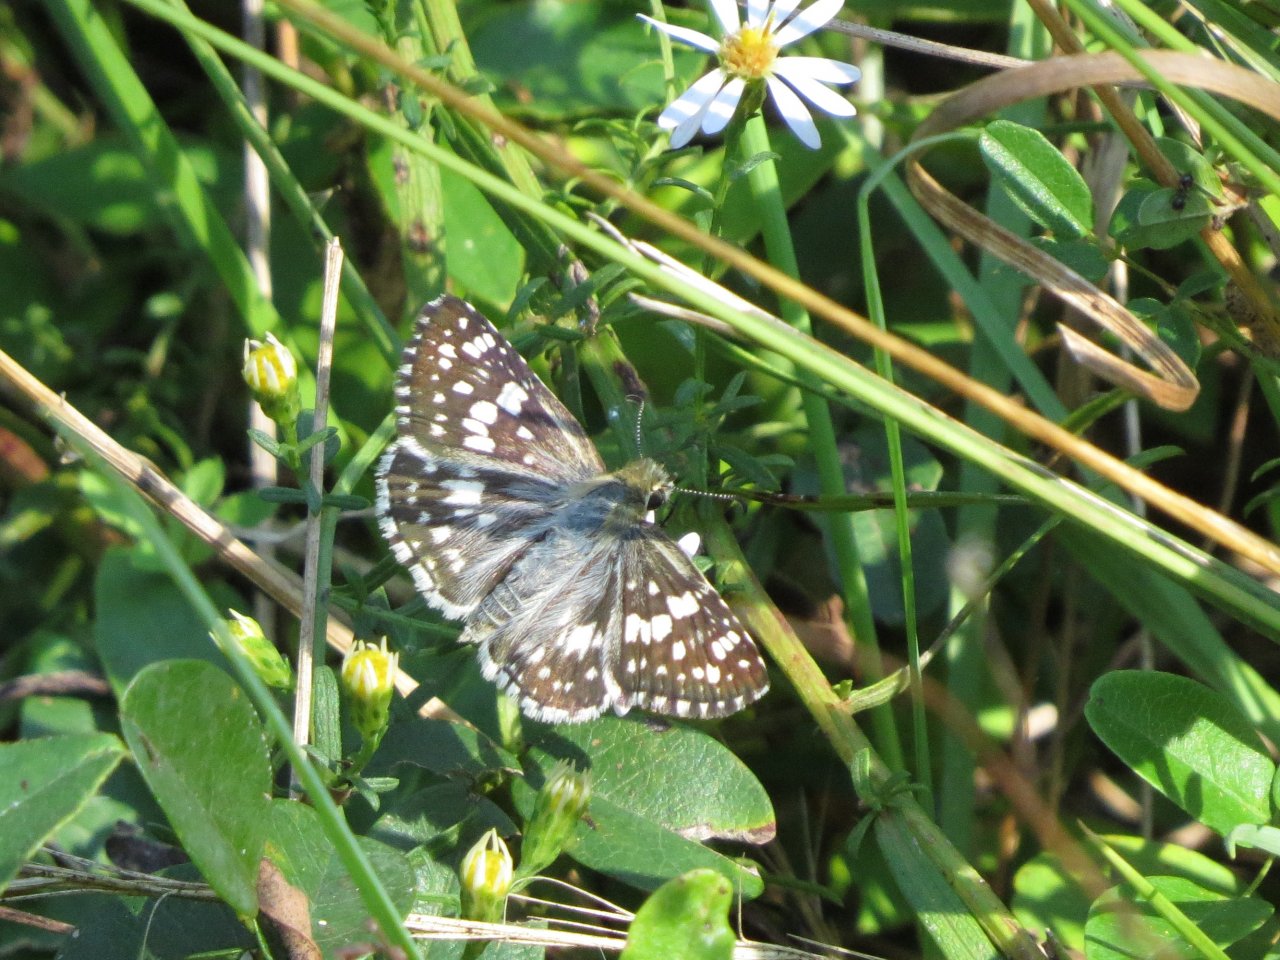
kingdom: Animalia
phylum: Arthropoda
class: Insecta
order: Lepidoptera
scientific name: Lepidoptera
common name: Butterflies
